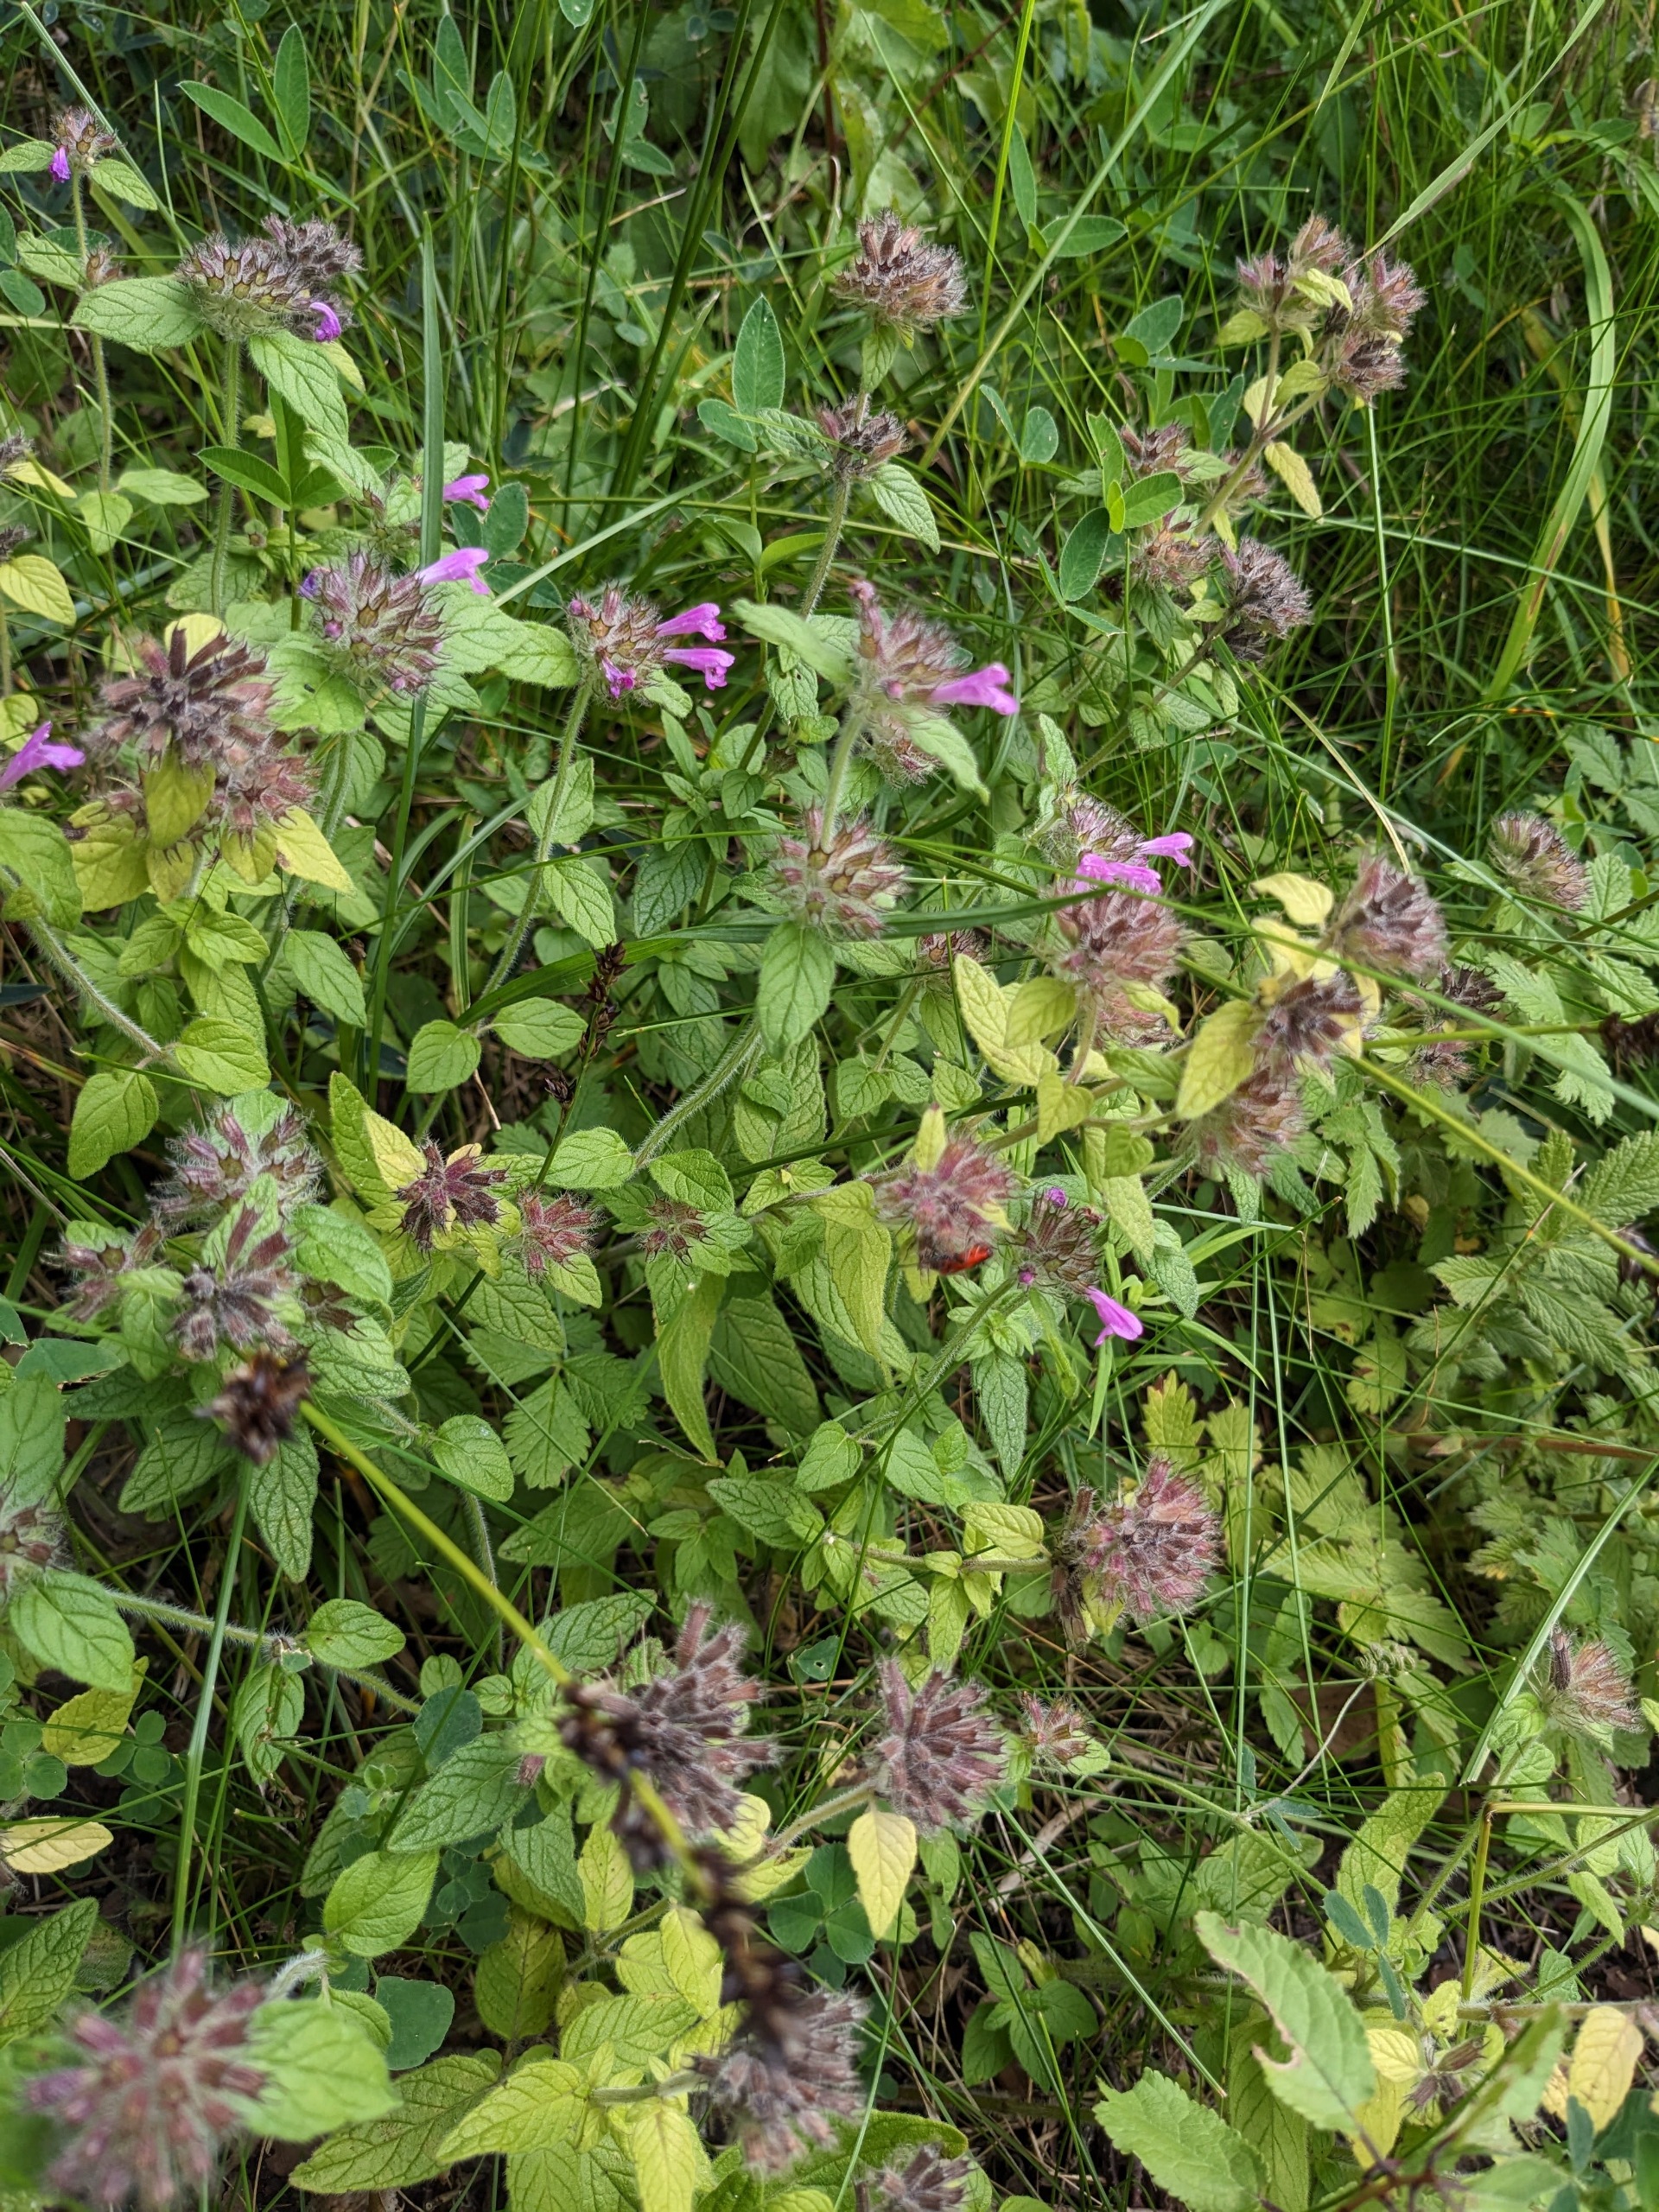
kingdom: Plantae
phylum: Tracheophyta
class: Magnoliopsida
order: Lamiales
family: Lamiaceae
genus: Clinopodium
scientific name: Clinopodium vulgare
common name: Kransbørste
